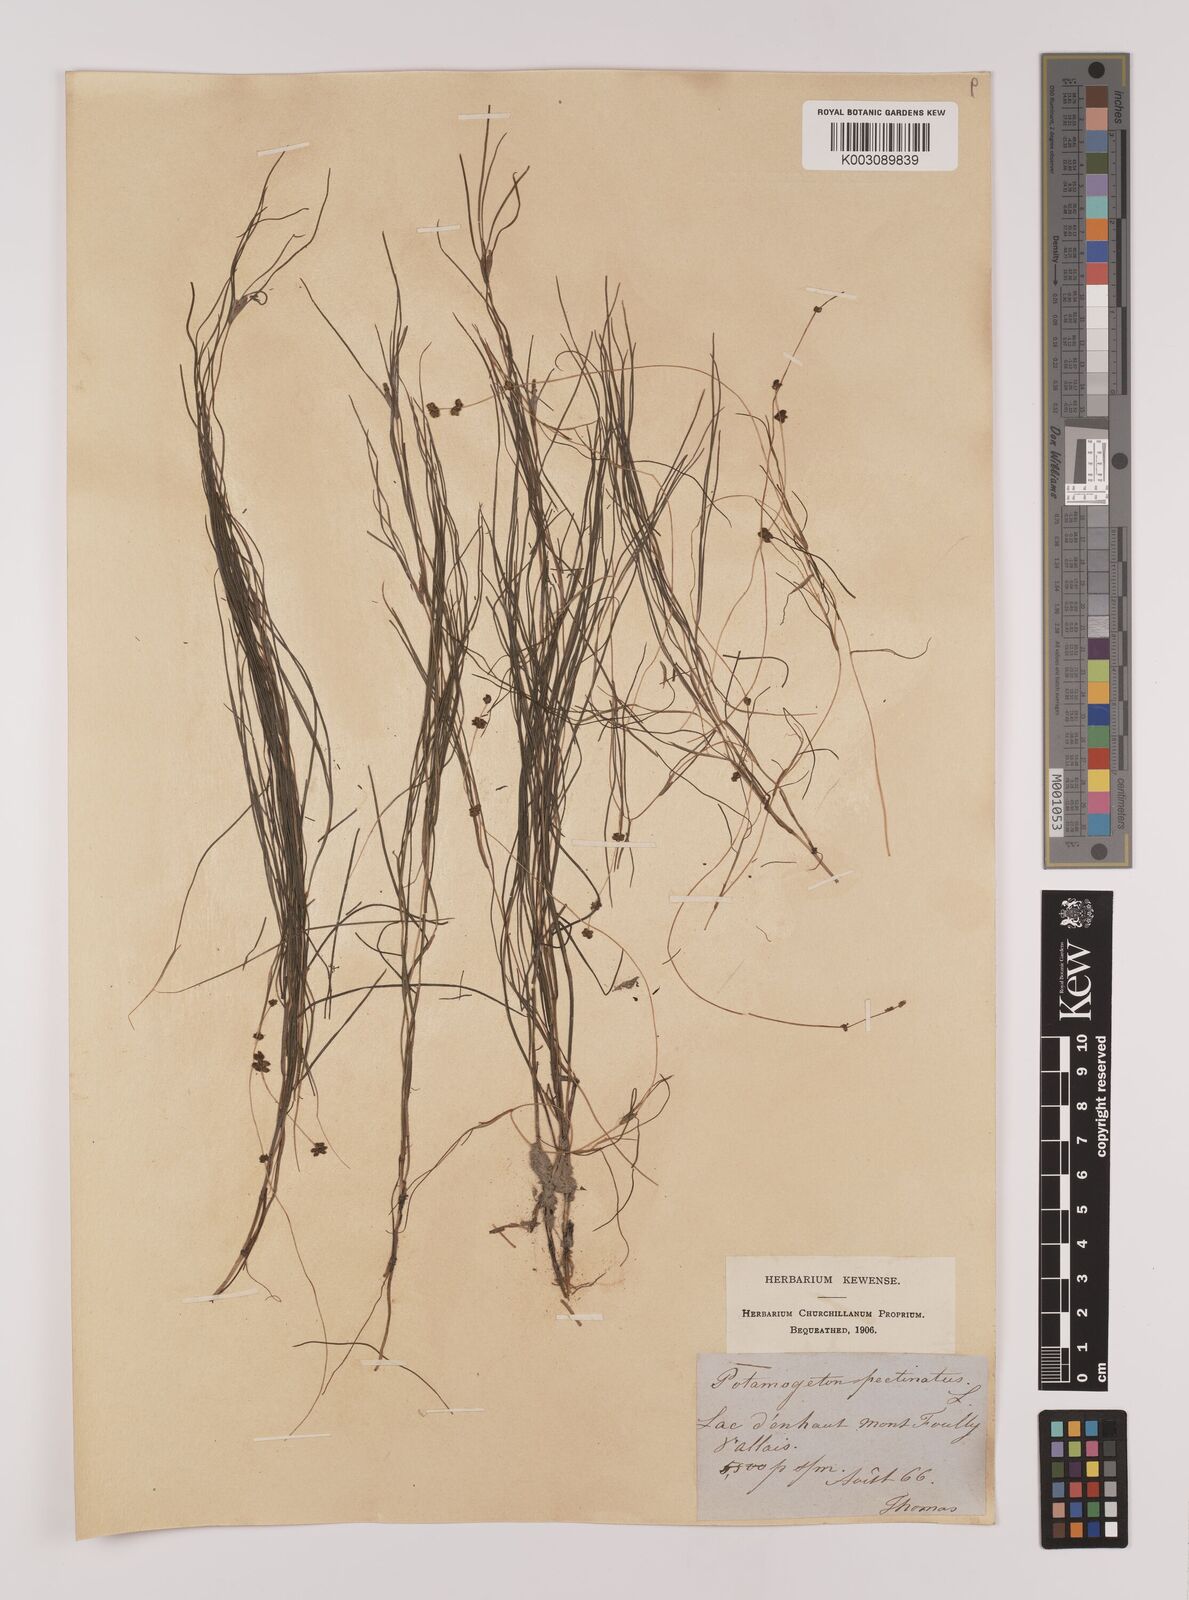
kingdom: Plantae
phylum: Tracheophyta
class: Liliopsida
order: Alismatales
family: Potamogetonaceae
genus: Stuckenia
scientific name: Stuckenia pectinata
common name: Sago pondweed
